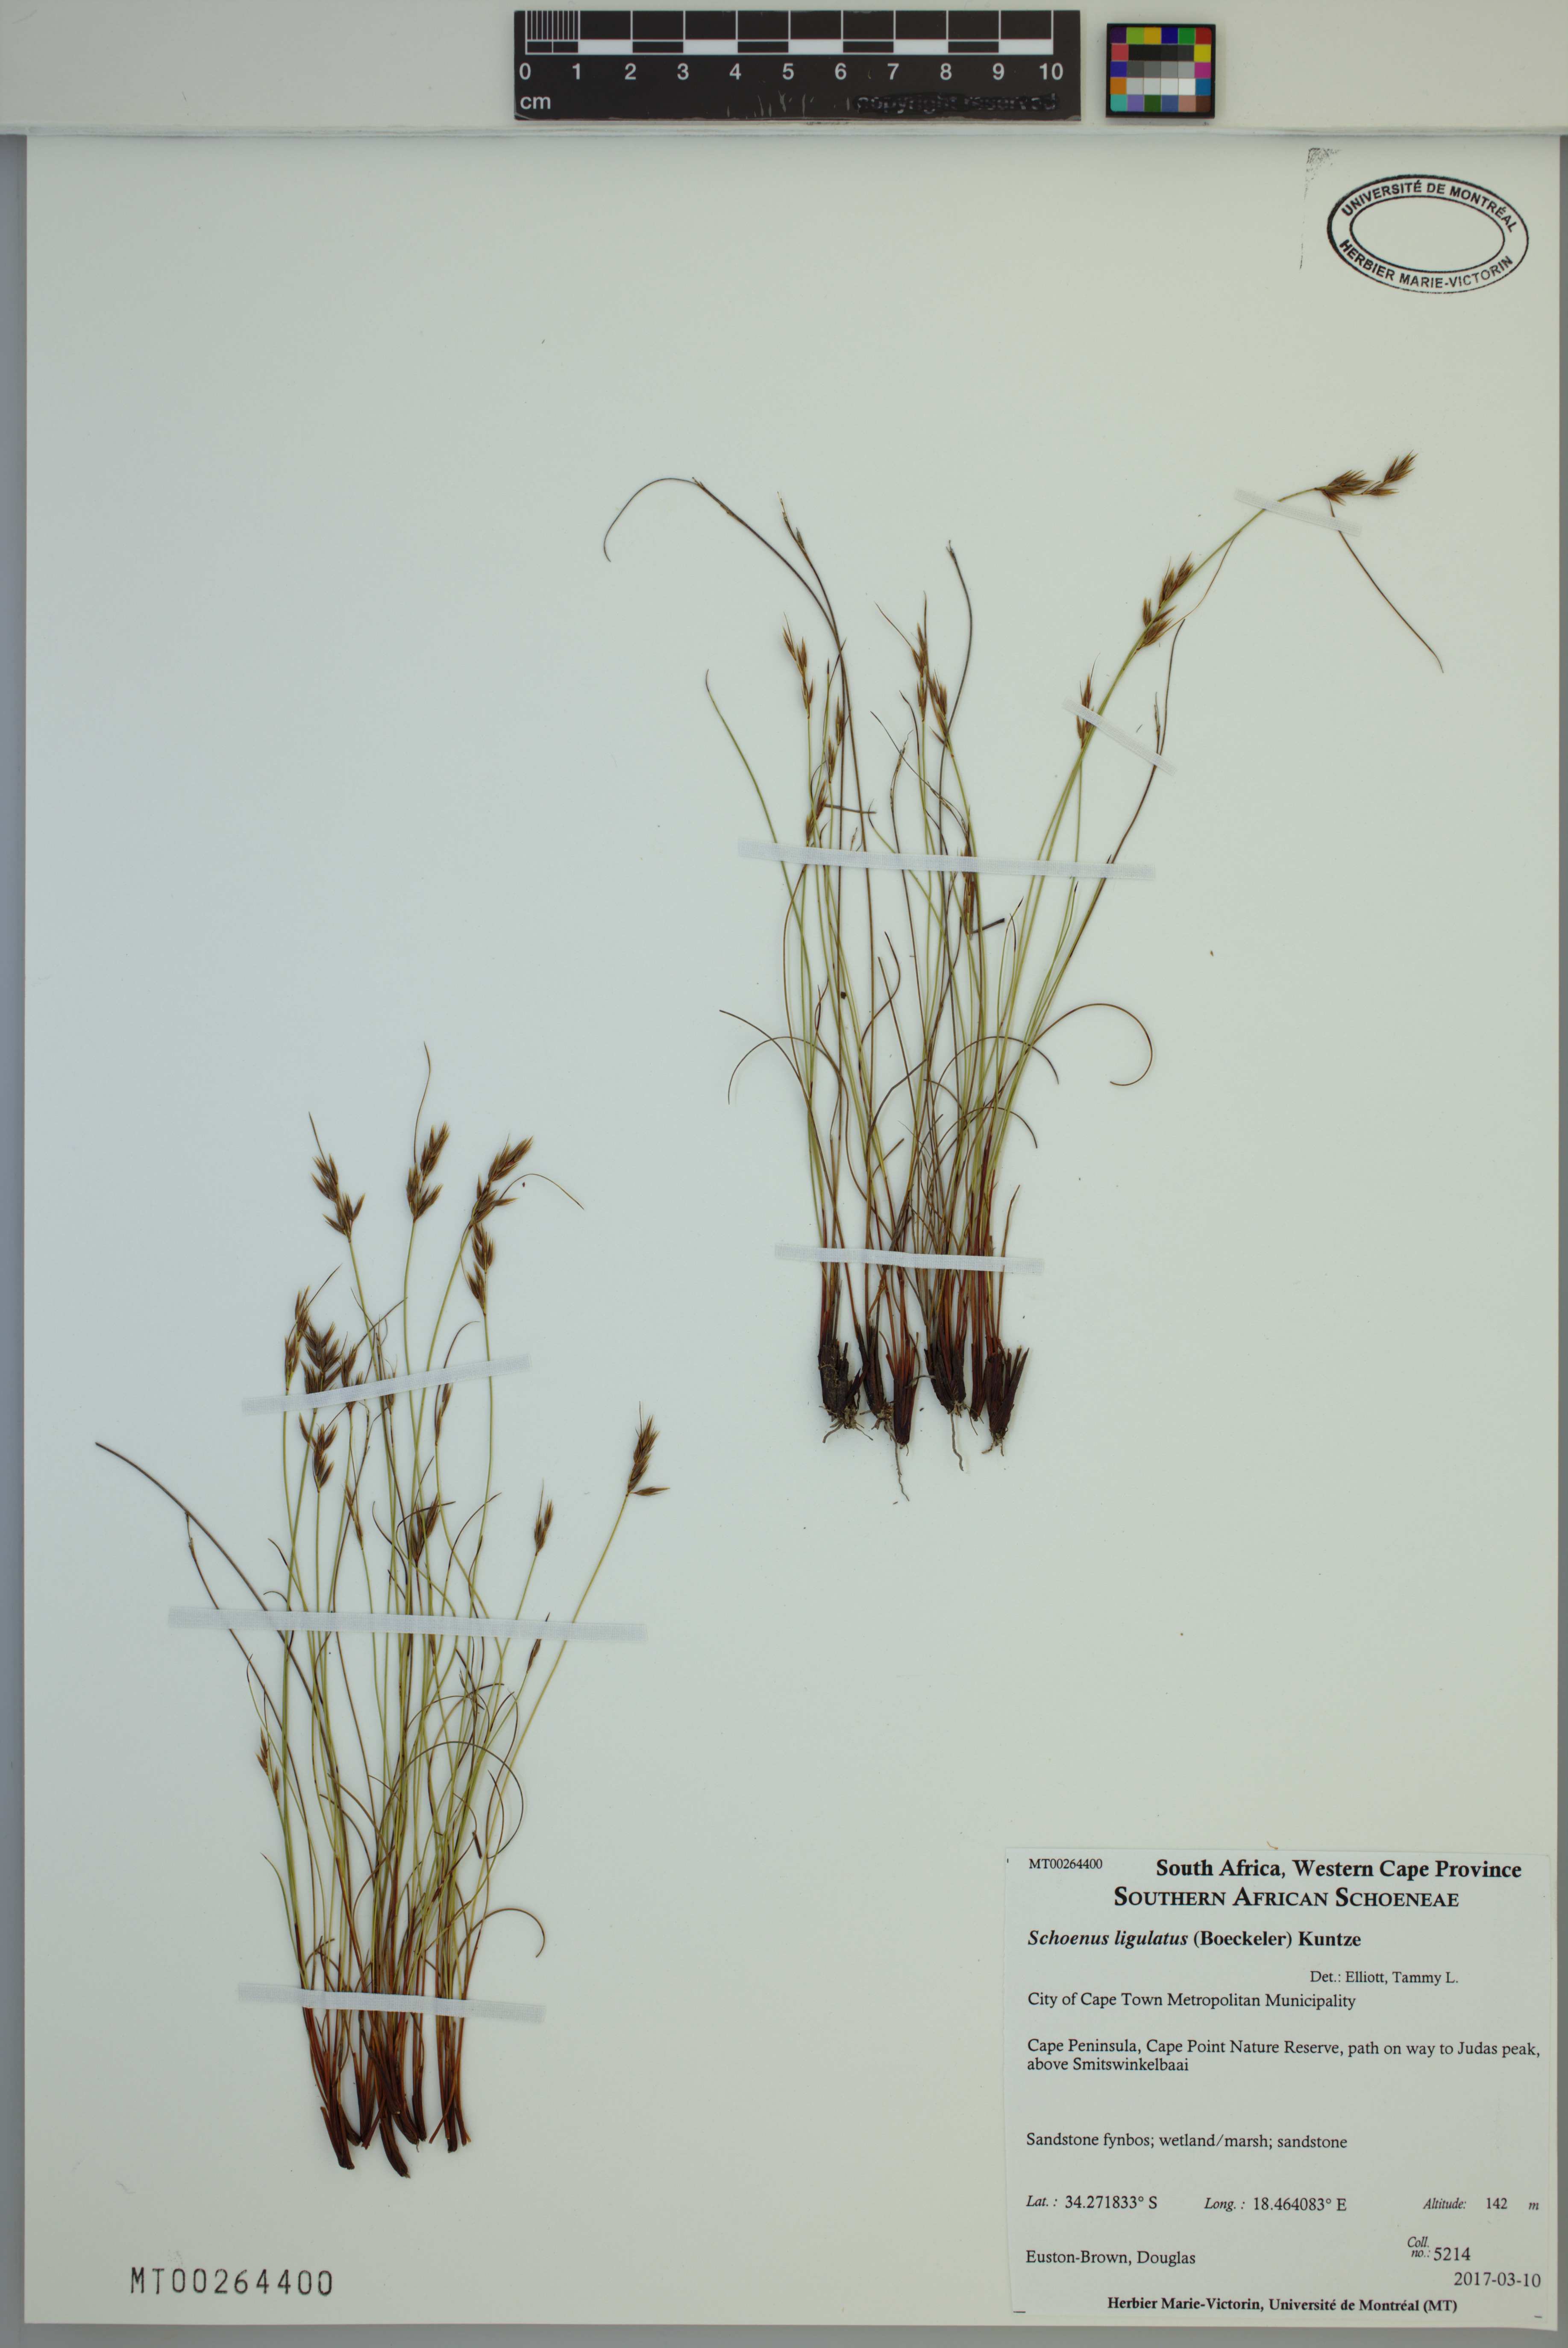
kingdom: Plantae
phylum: Tracheophyta
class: Liliopsida
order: Poales
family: Cyperaceae
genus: Schoenus
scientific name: Schoenus ligulatus
